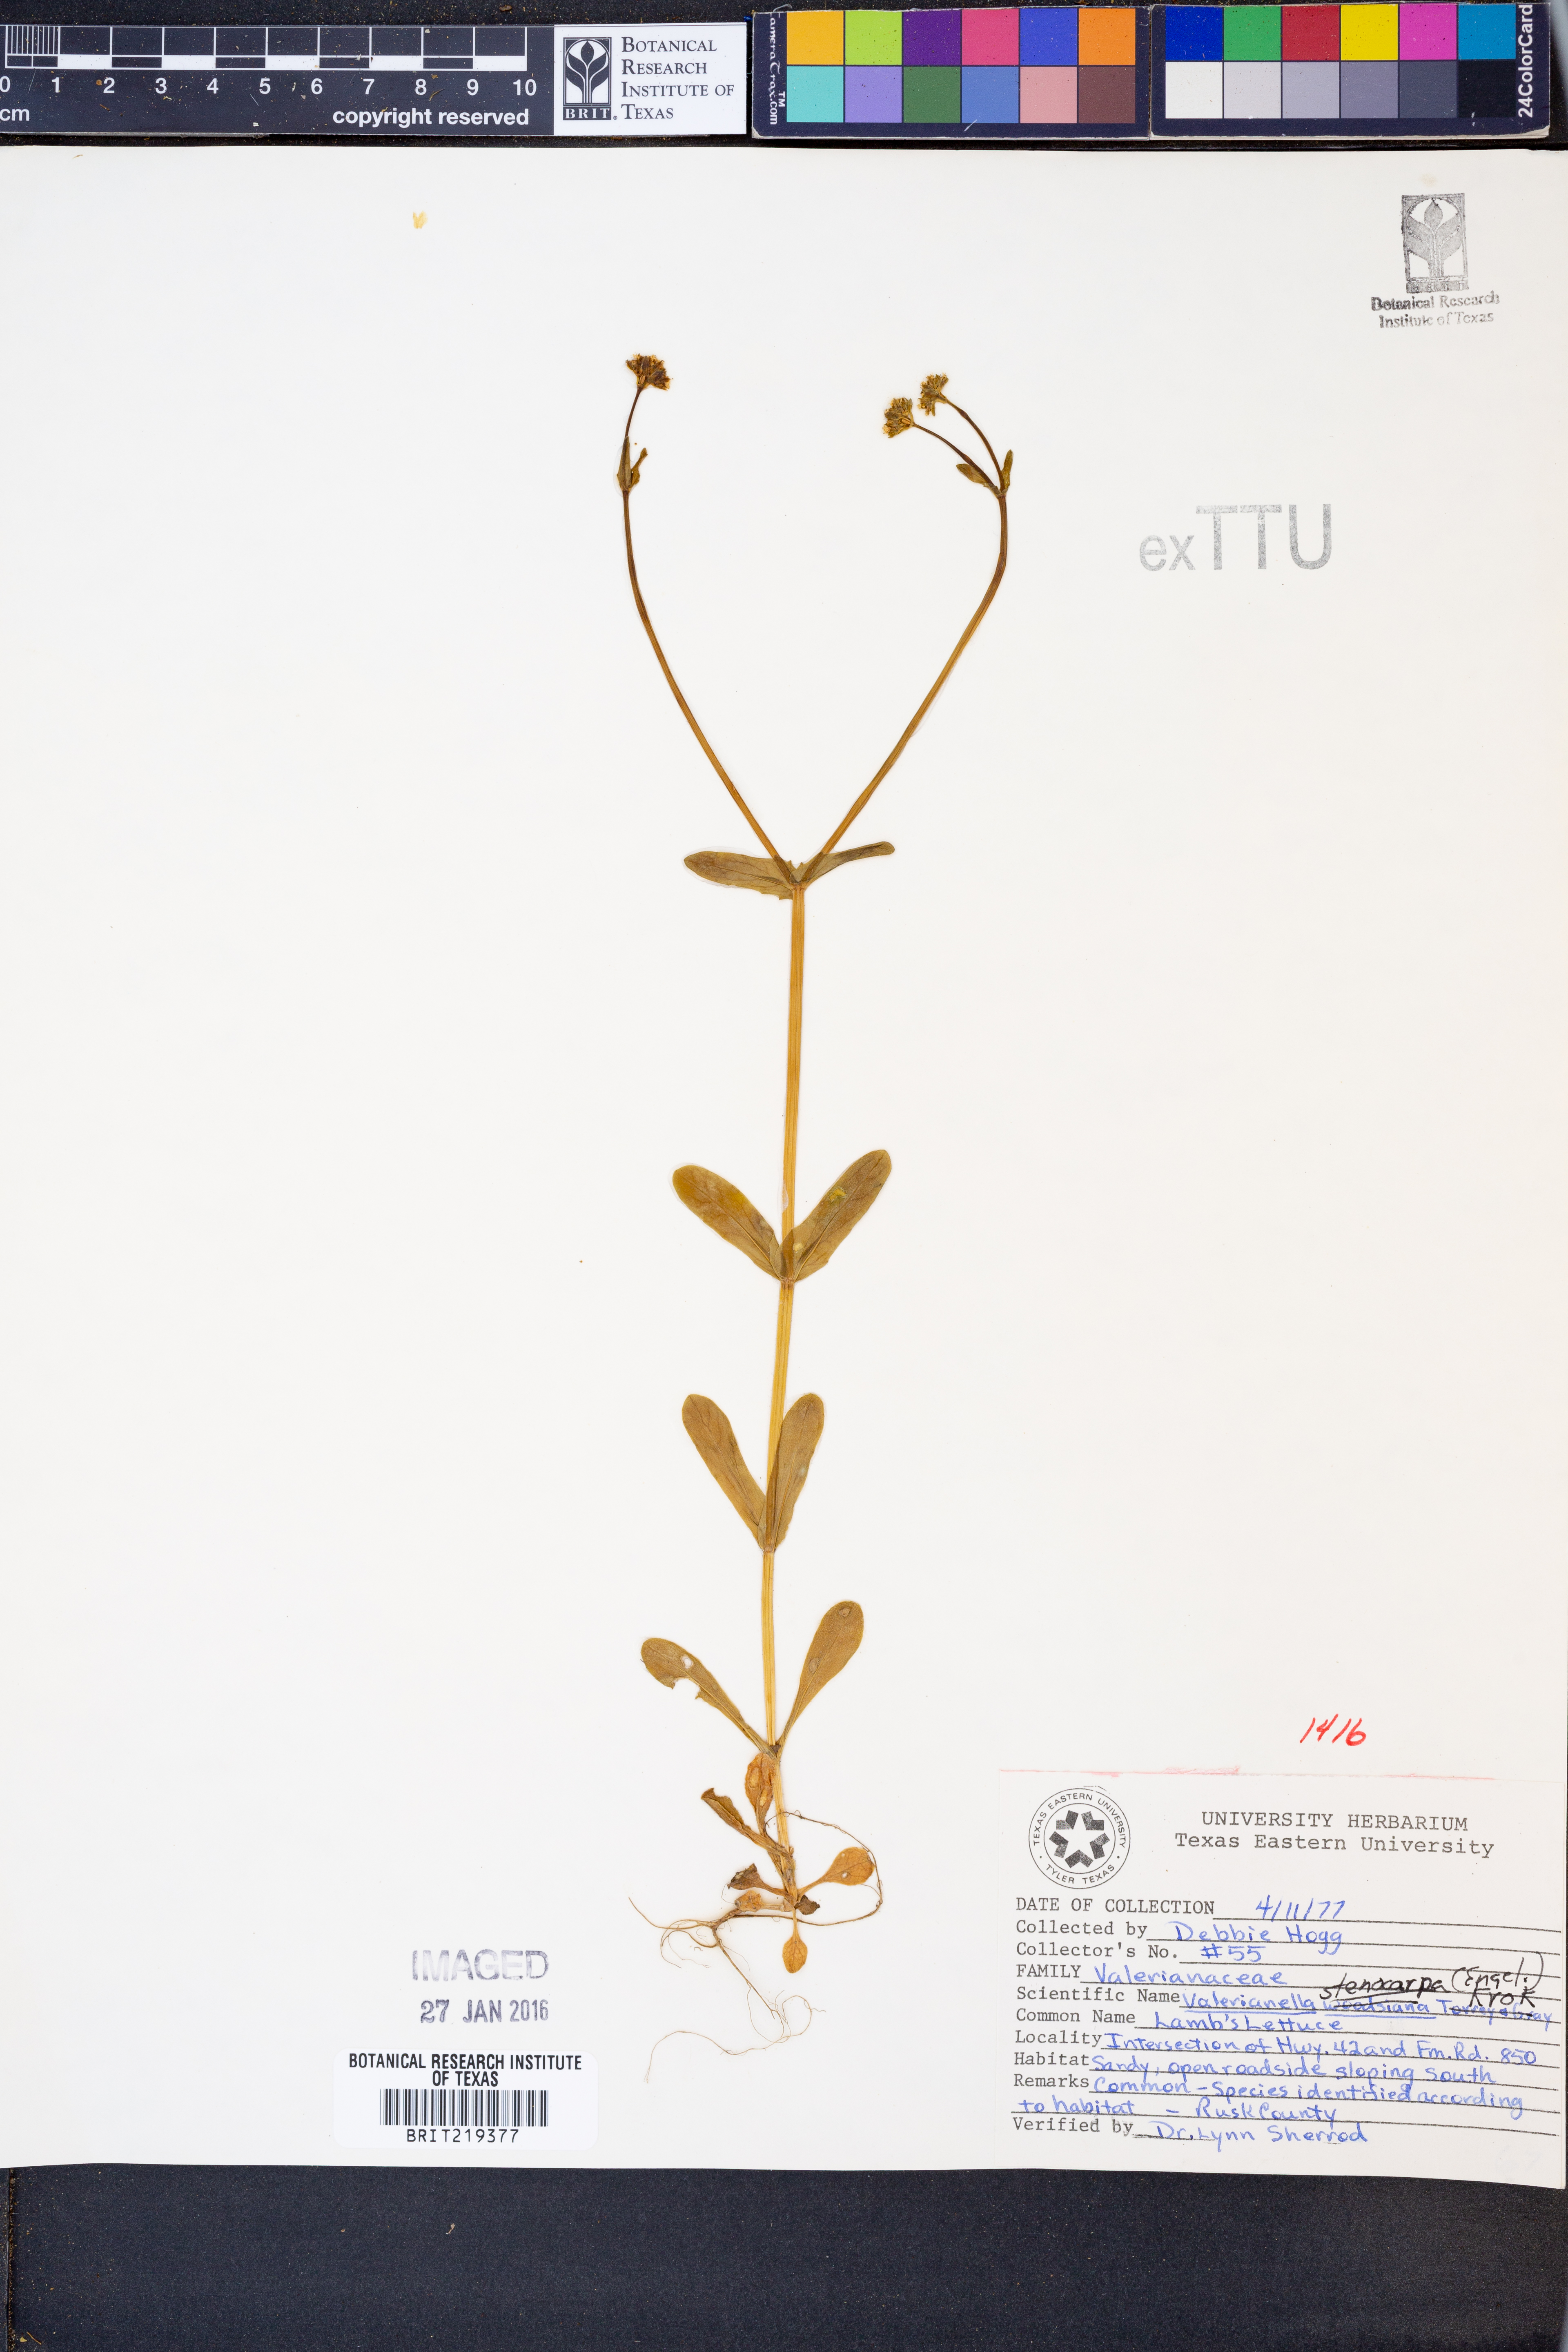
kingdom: Plantae
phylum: Tracheophyta
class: Magnoliopsida
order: Dipsacales
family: Caprifoliaceae
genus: Valerianella
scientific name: Valerianella stenocarpa
